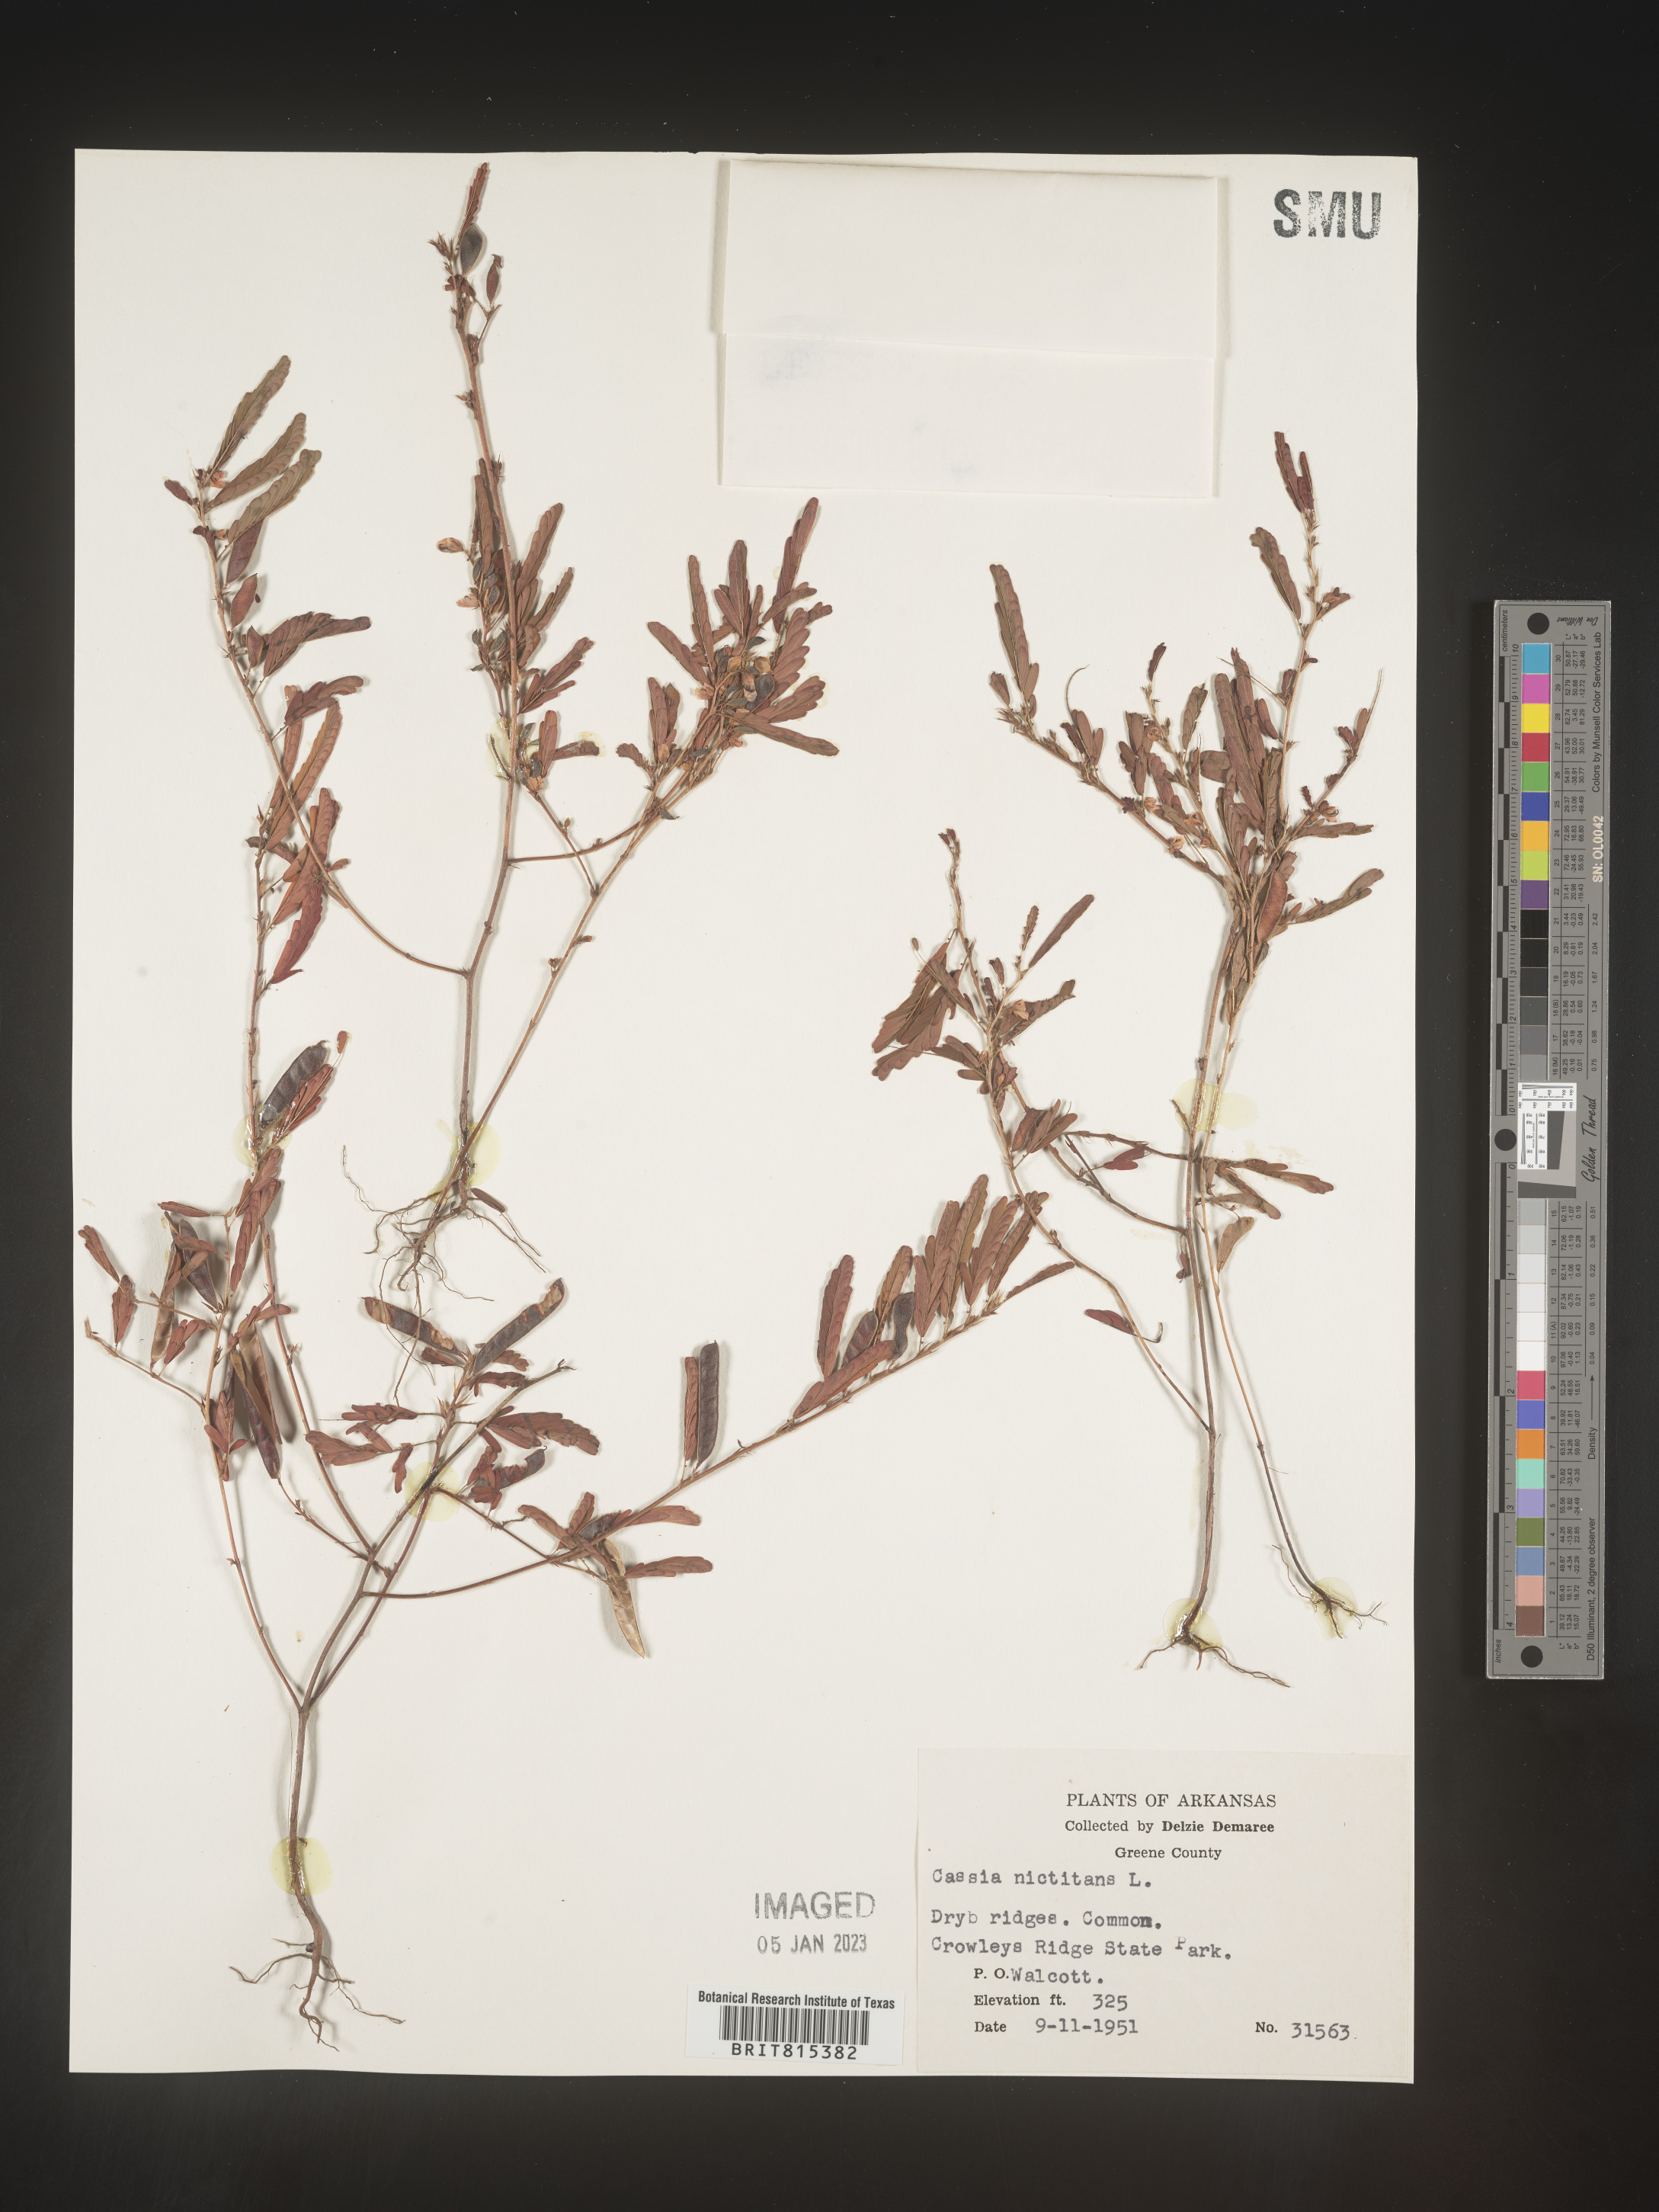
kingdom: Plantae
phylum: Tracheophyta
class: Magnoliopsida
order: Fabales
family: Fabaceae
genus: Chamaecrista
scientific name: Chamaecrista nictitans
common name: Sensitive cassia
